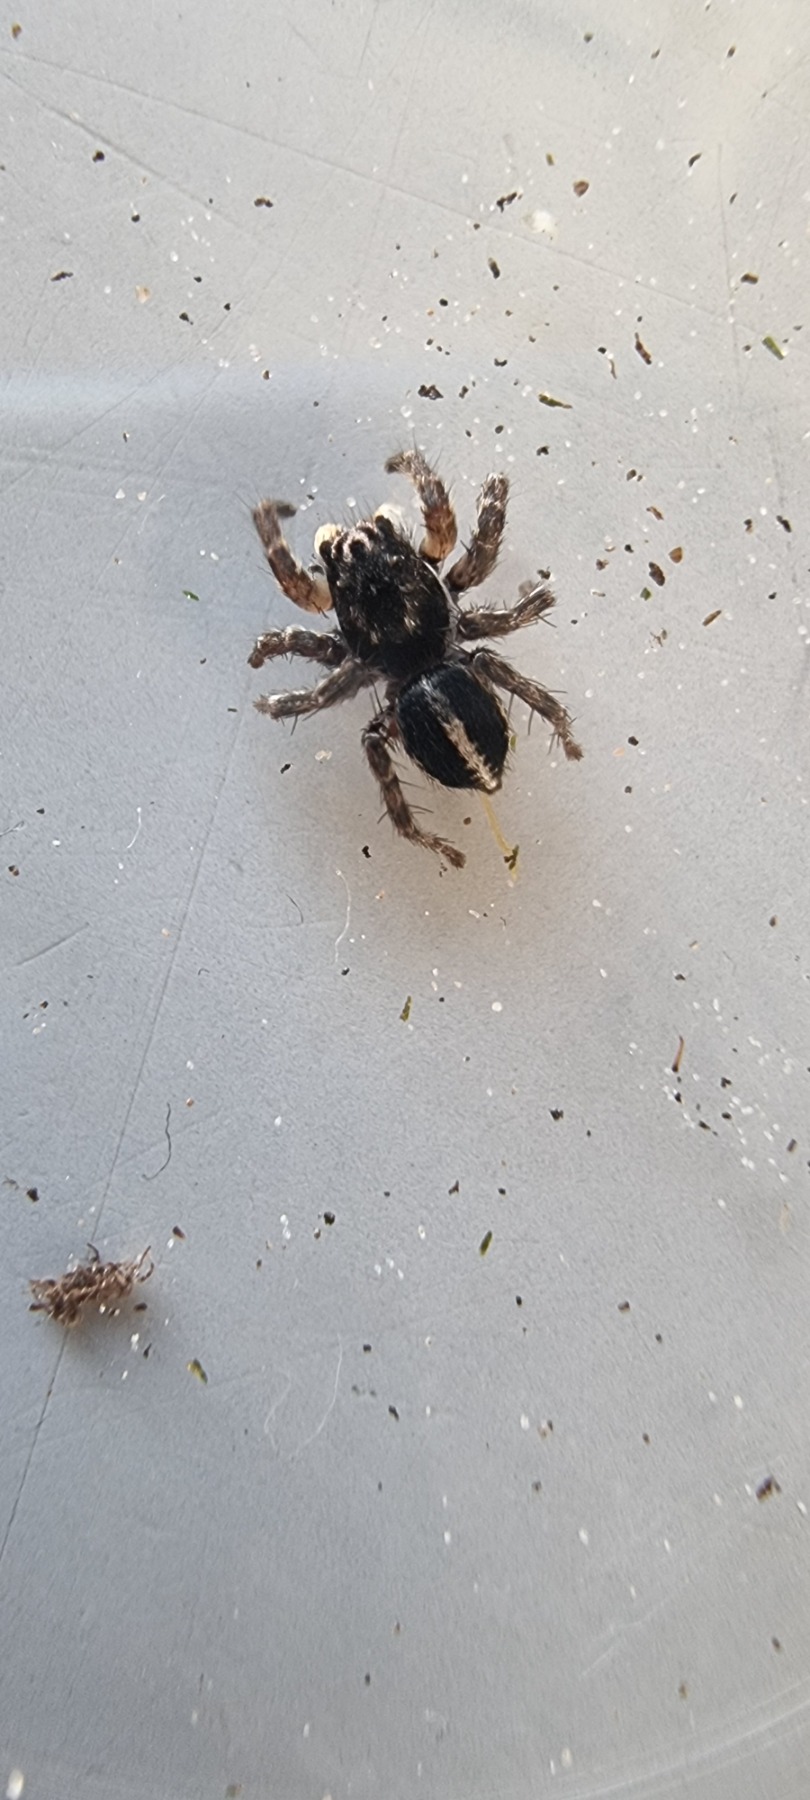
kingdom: Animalia
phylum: Arthropoda
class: Arachnida
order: Araneae
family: Salticidae
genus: Aelurillus
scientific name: Aelurillus v-insignitus
